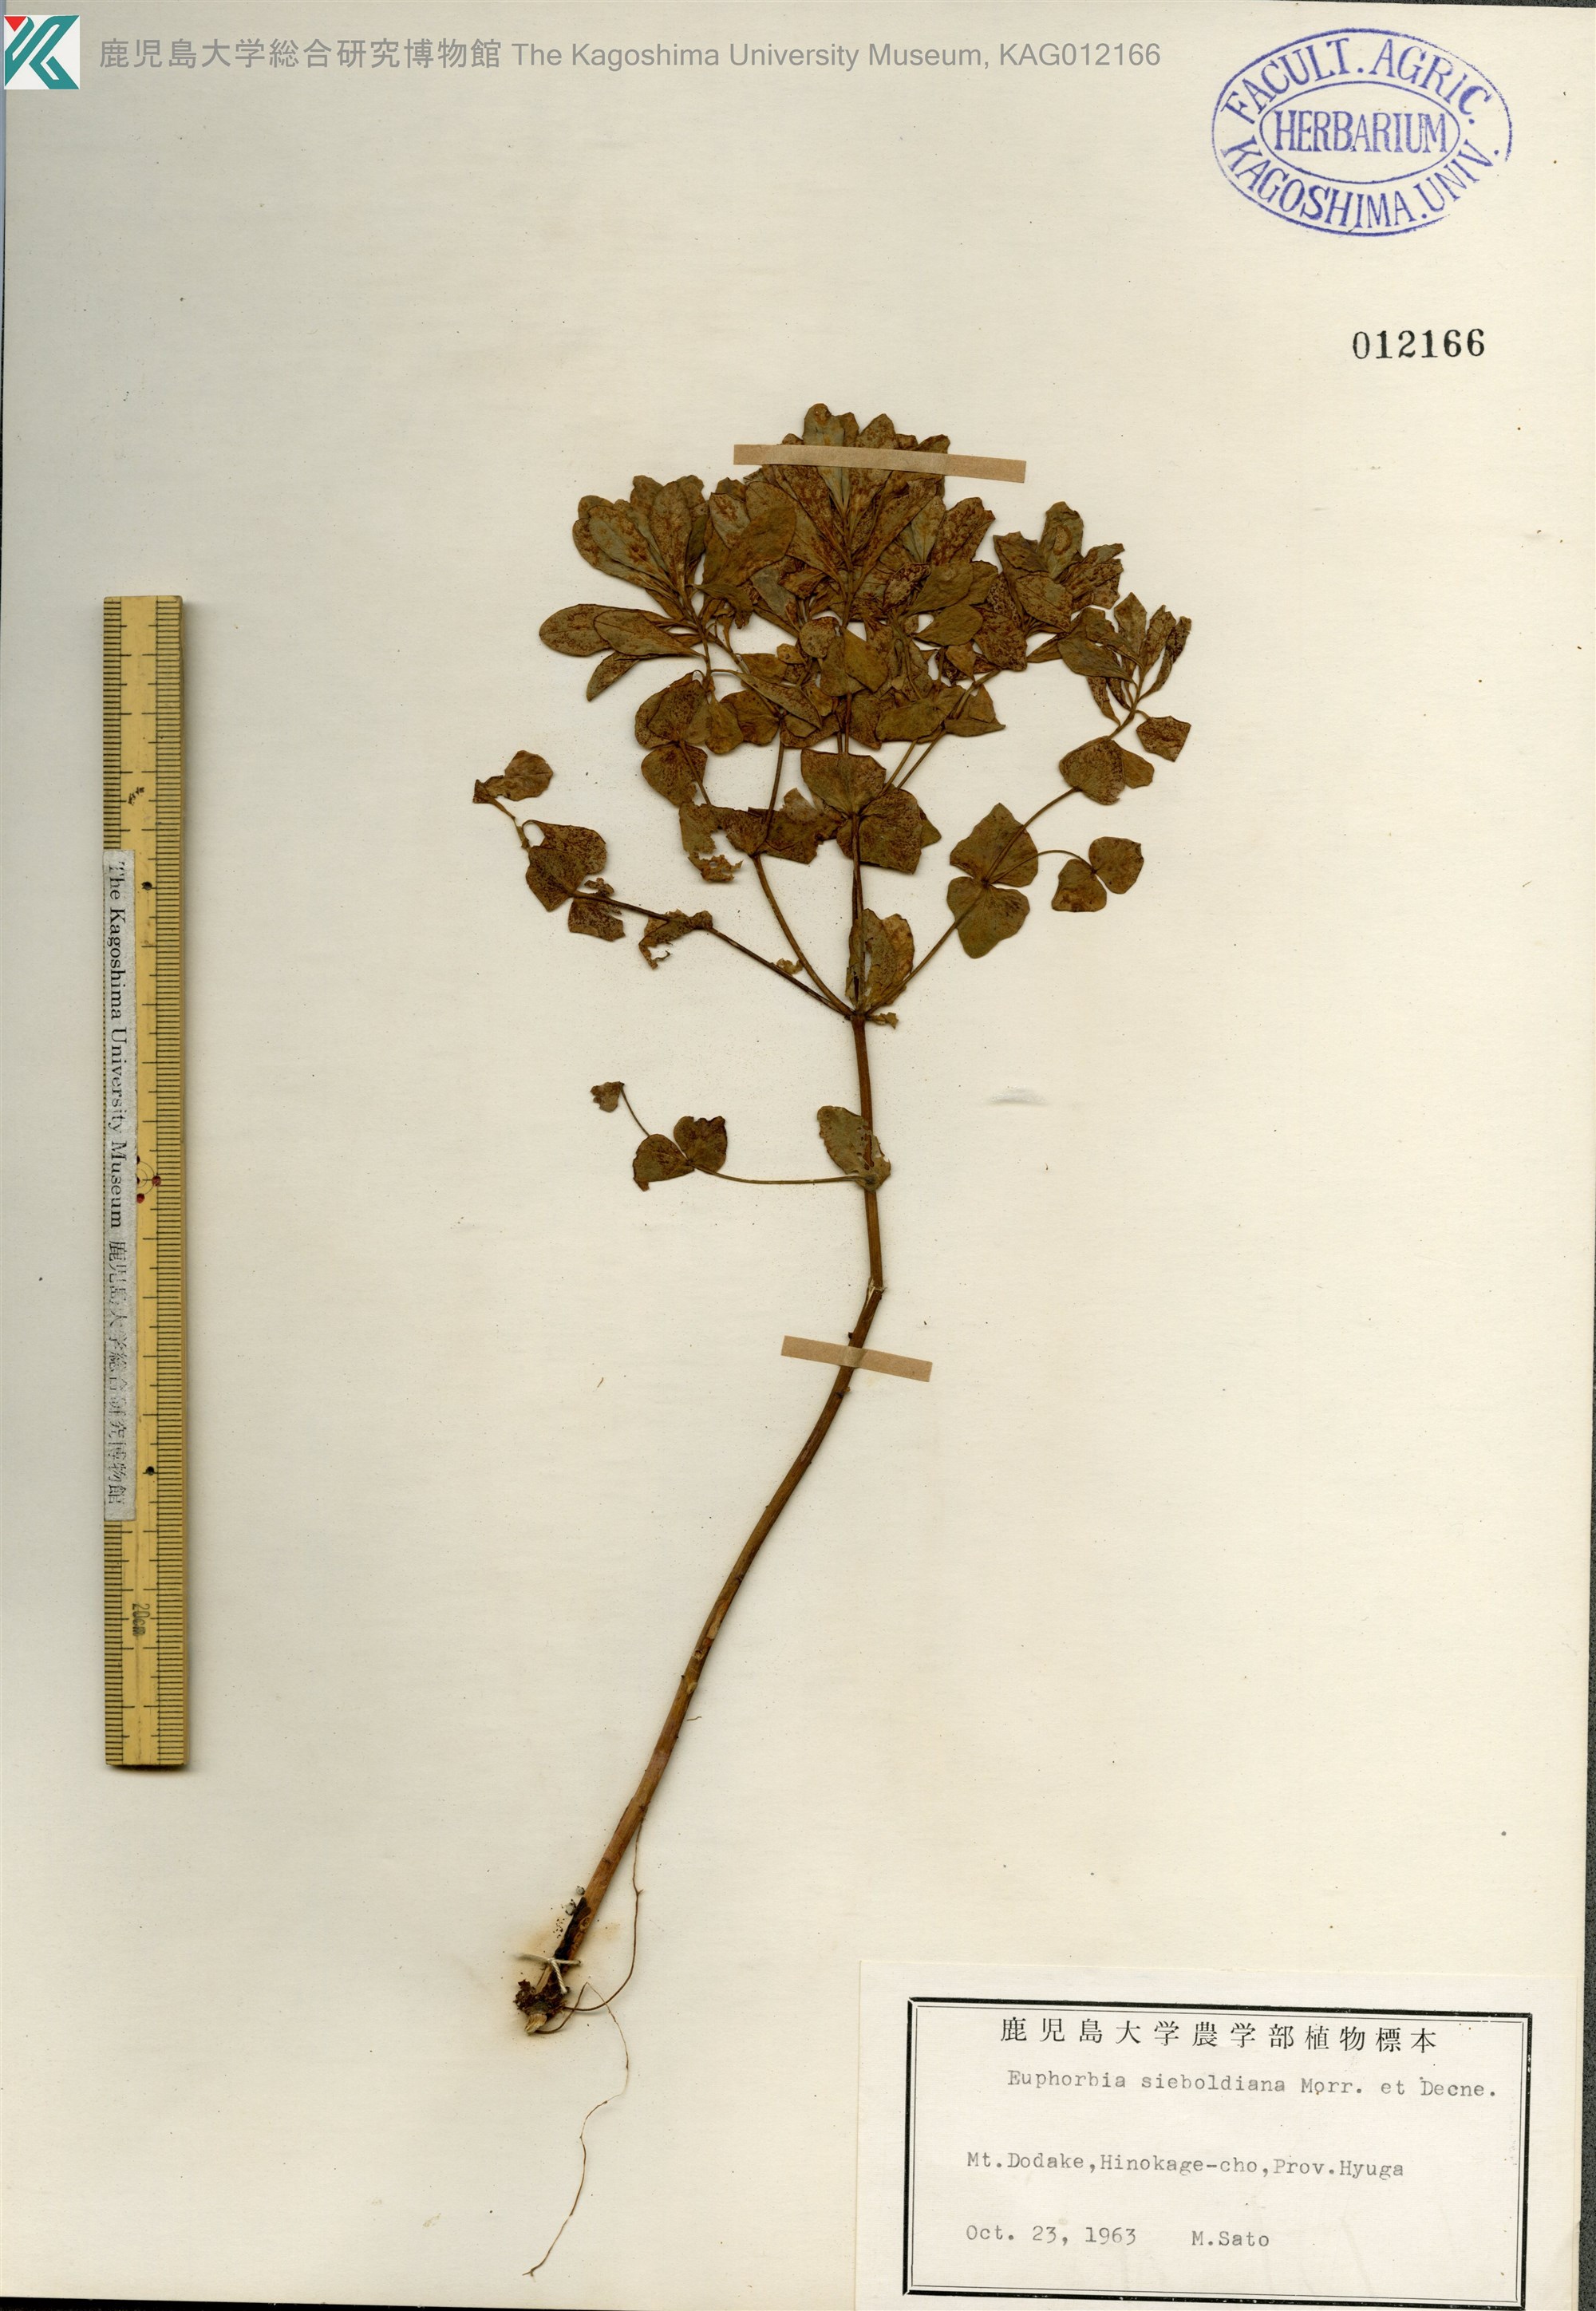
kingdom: Plantae
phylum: Tracheophyta
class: Magnoliopsida
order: Malpighiales
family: Euphorbiaceae
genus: Euphorbia
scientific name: Euphorbia sieboldiana
